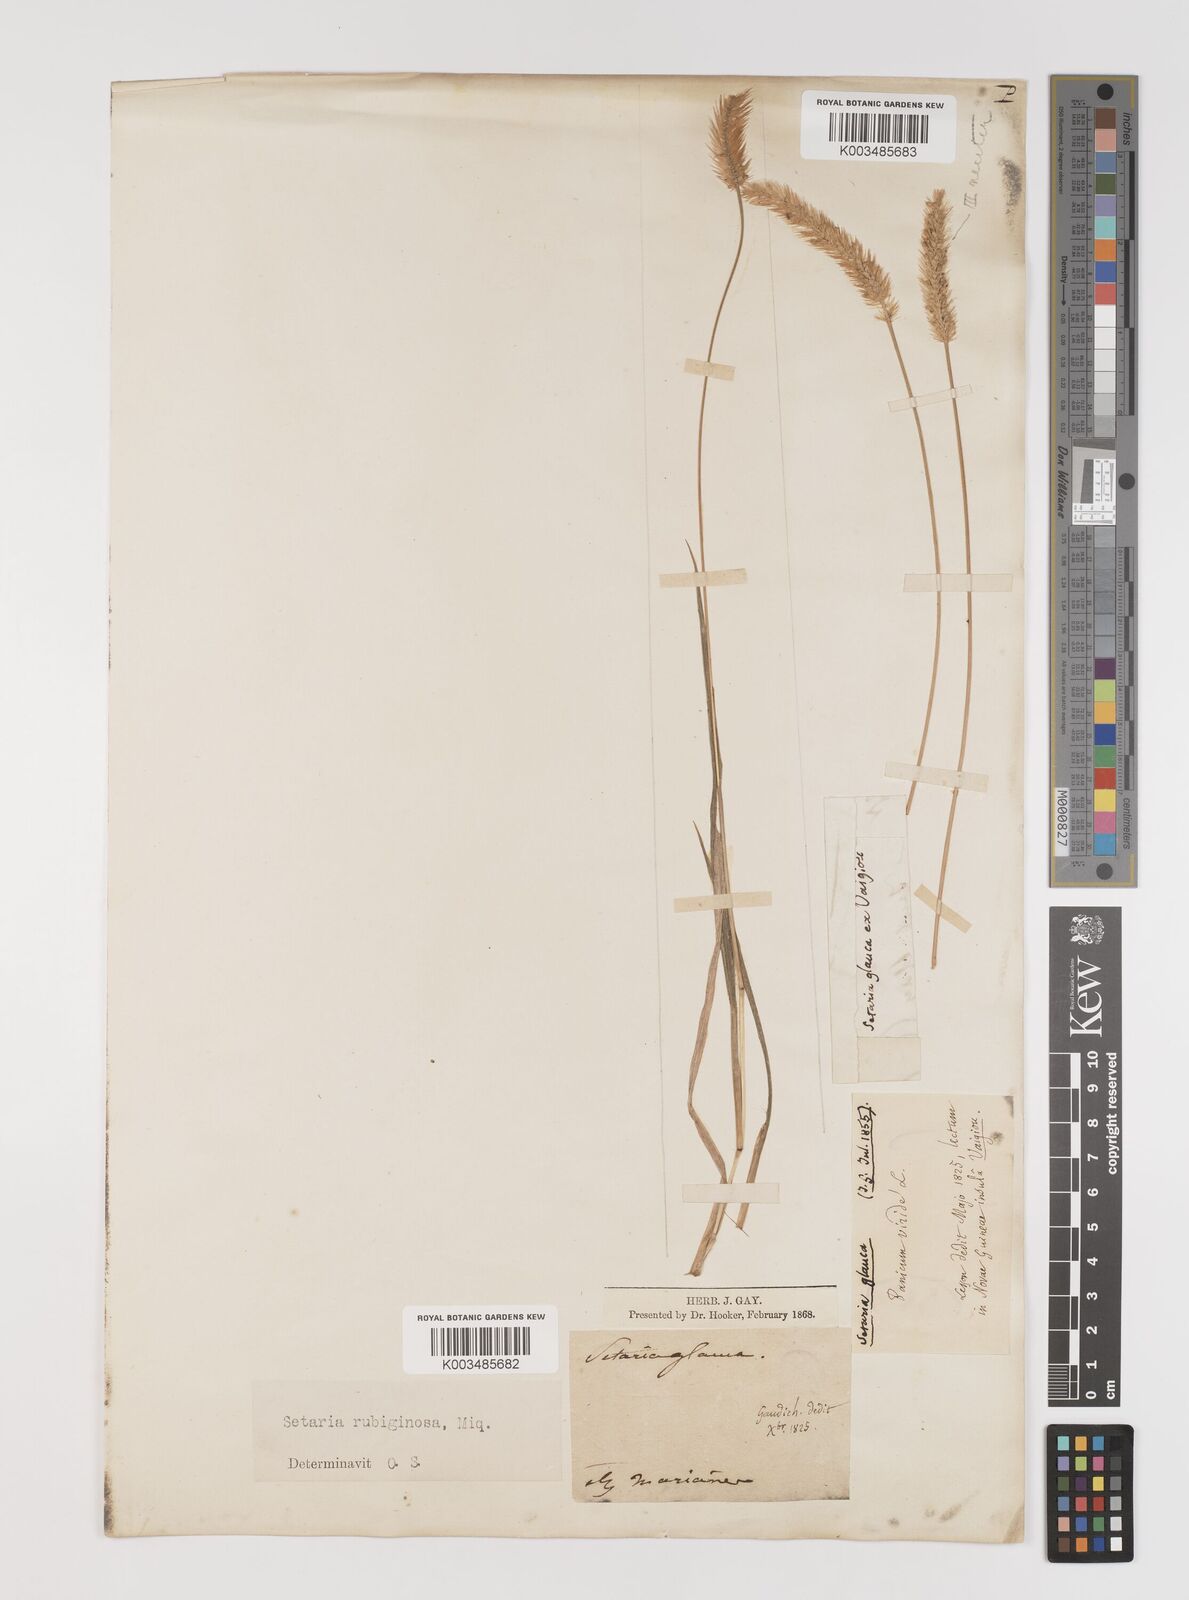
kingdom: Plantae
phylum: Tracheophyta
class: Liliopsida
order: Poales
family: Poaceae
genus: Setaria
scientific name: Setaria pumila
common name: Yellow bristle-grass
